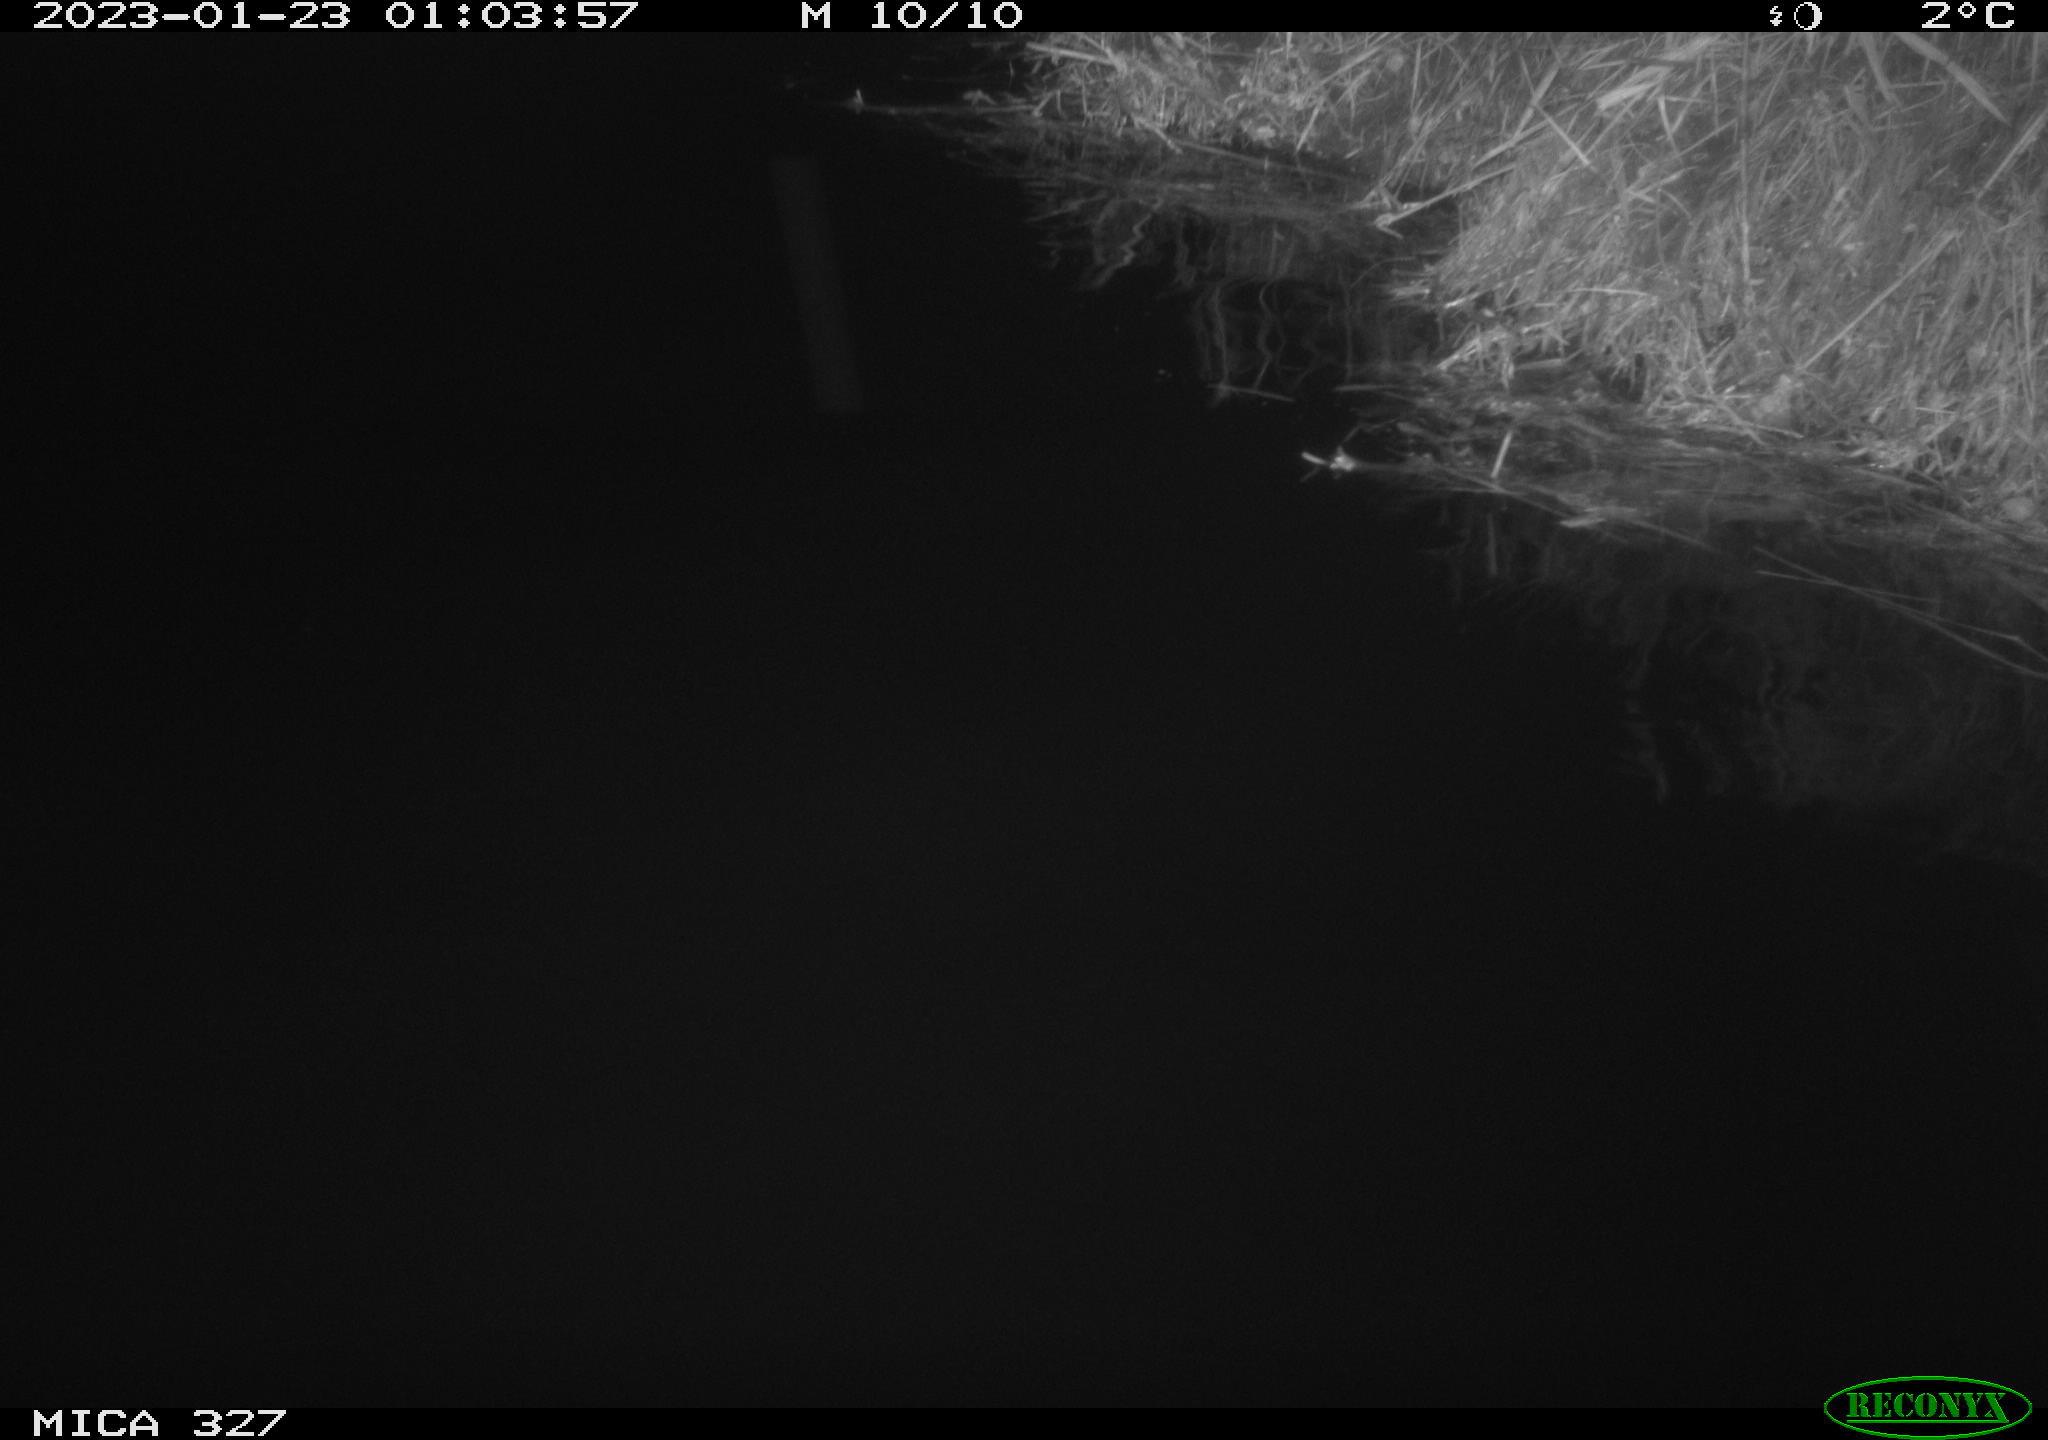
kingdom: Animalia
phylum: Chordata
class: Mammalia
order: Rodentia
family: Cricetidae
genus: Ondatra
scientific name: Ondatra zibethicus
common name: Muskrat
